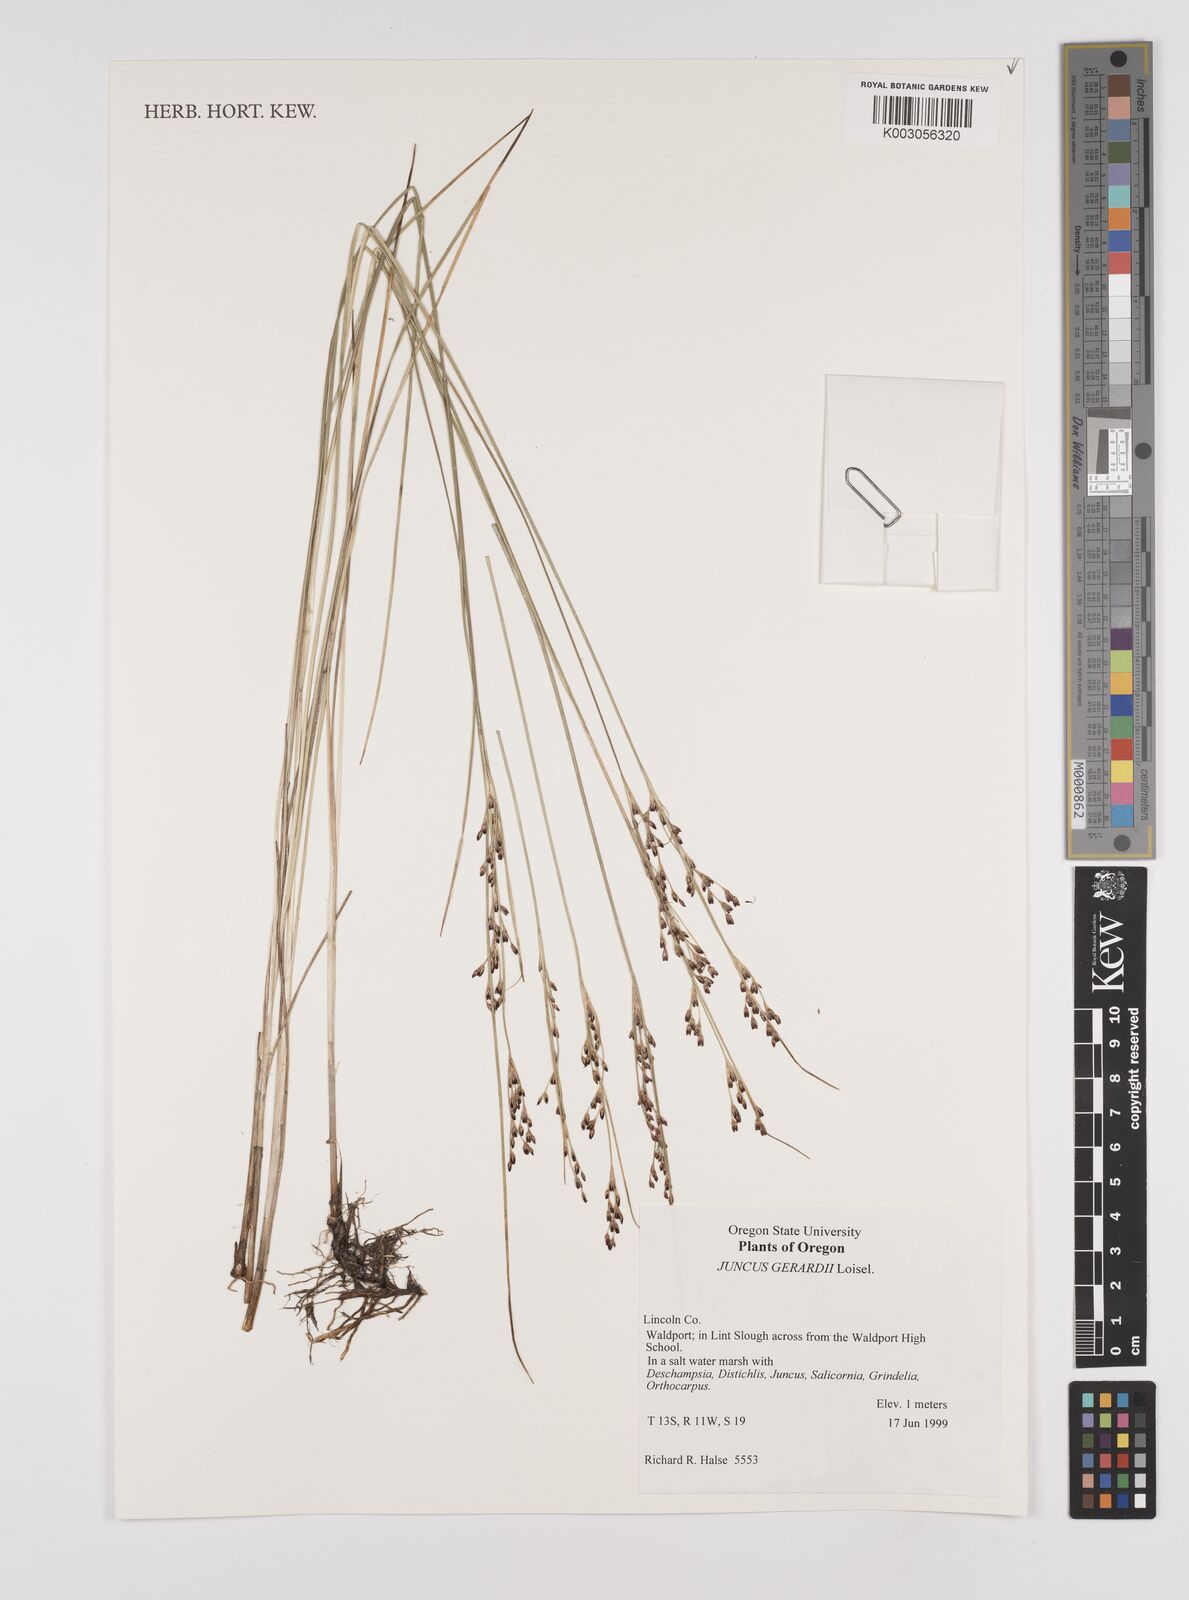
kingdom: Plantae
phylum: Tracheophyta
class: Liliopsida
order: Poales
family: Juncaceae
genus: Juncus
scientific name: Juncus gerardi
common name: Saltmarsh rush
